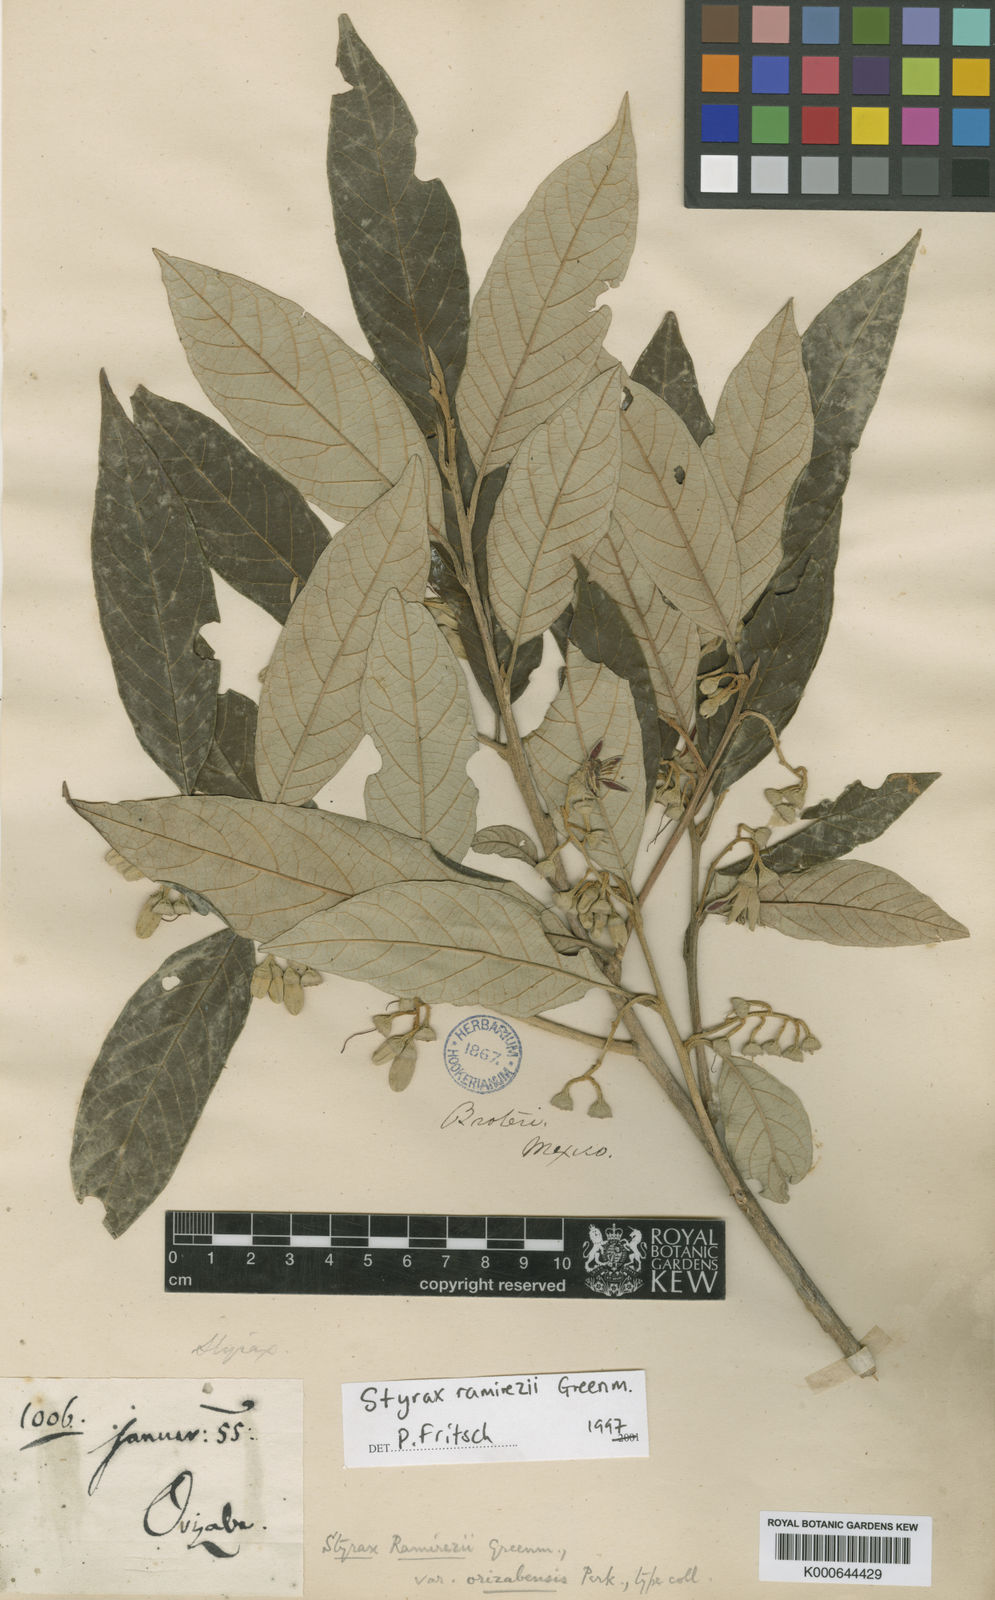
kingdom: Plantae
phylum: Tracheophyta
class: Magnoliopsida
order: Ericales
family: Styracaceae
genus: Styrax
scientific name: Styrax argenteus
